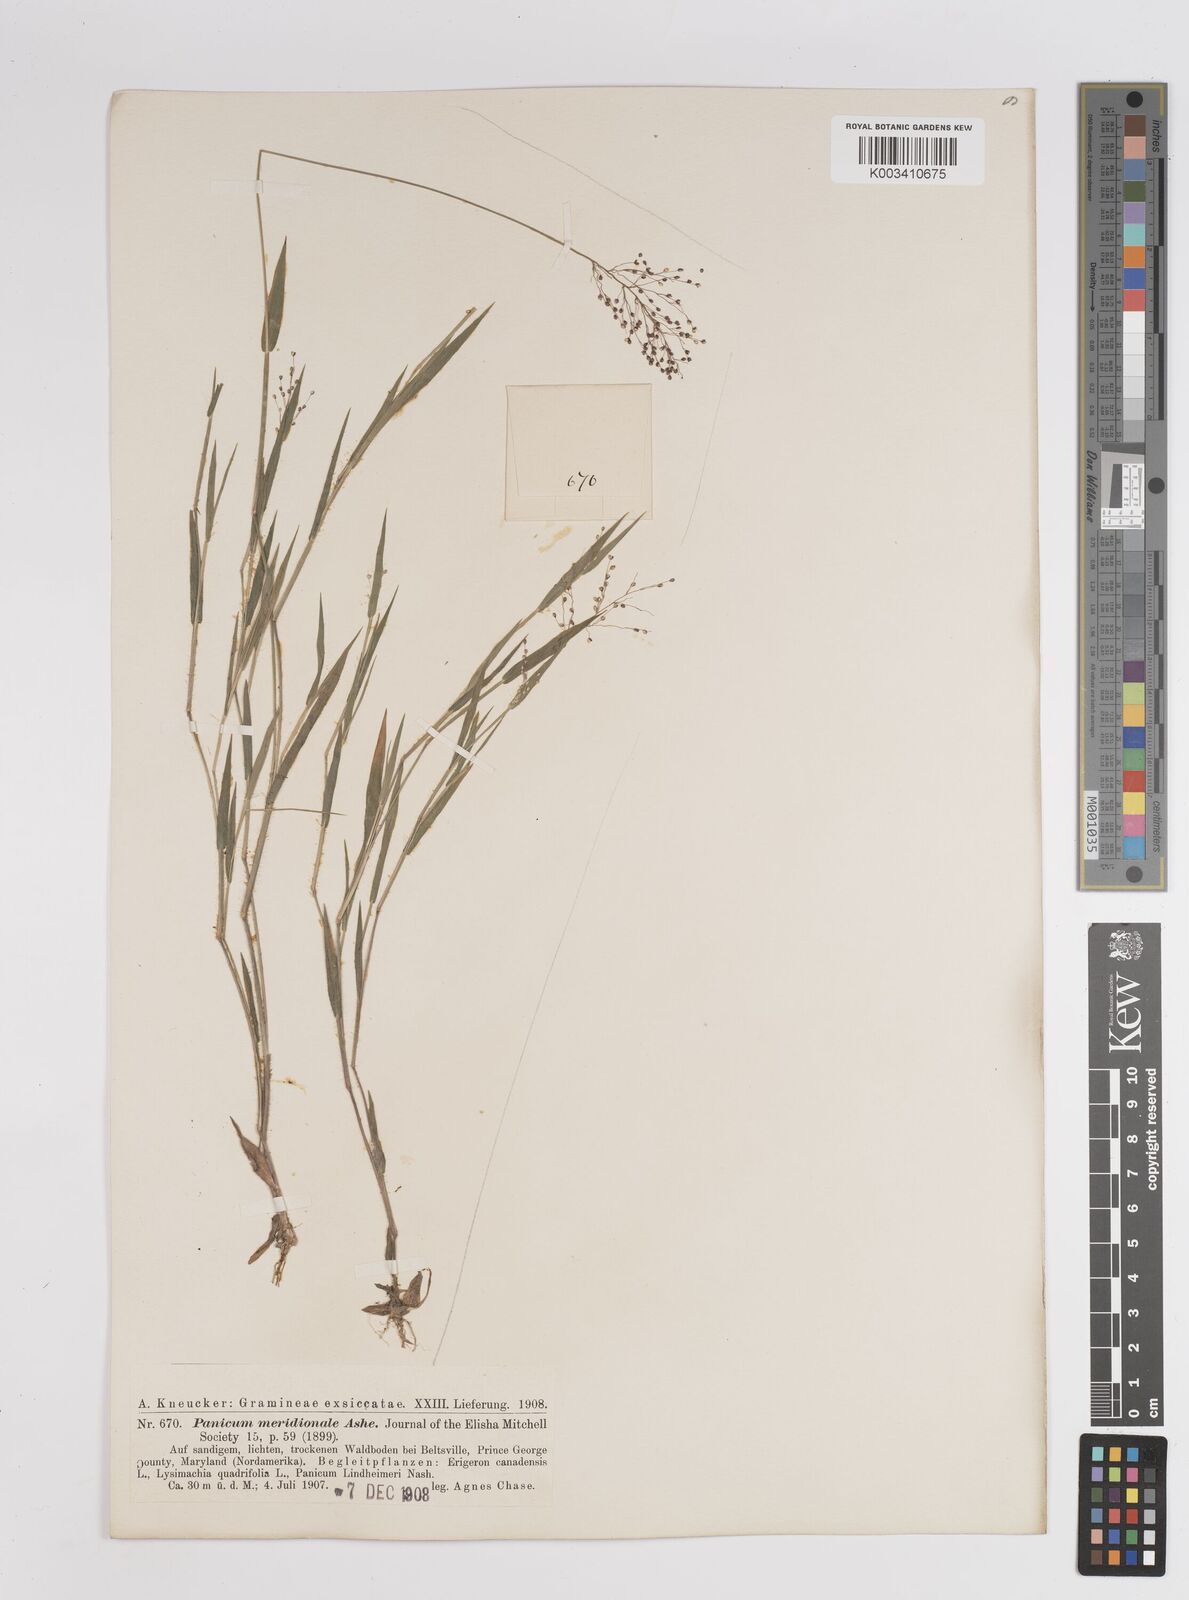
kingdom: Plantae
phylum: Tracheophyta
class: Liliopsida
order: Poales
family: Poaceae
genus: Dichanthelium
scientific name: Dichanthelium meridionale
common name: Mat panicgrass
